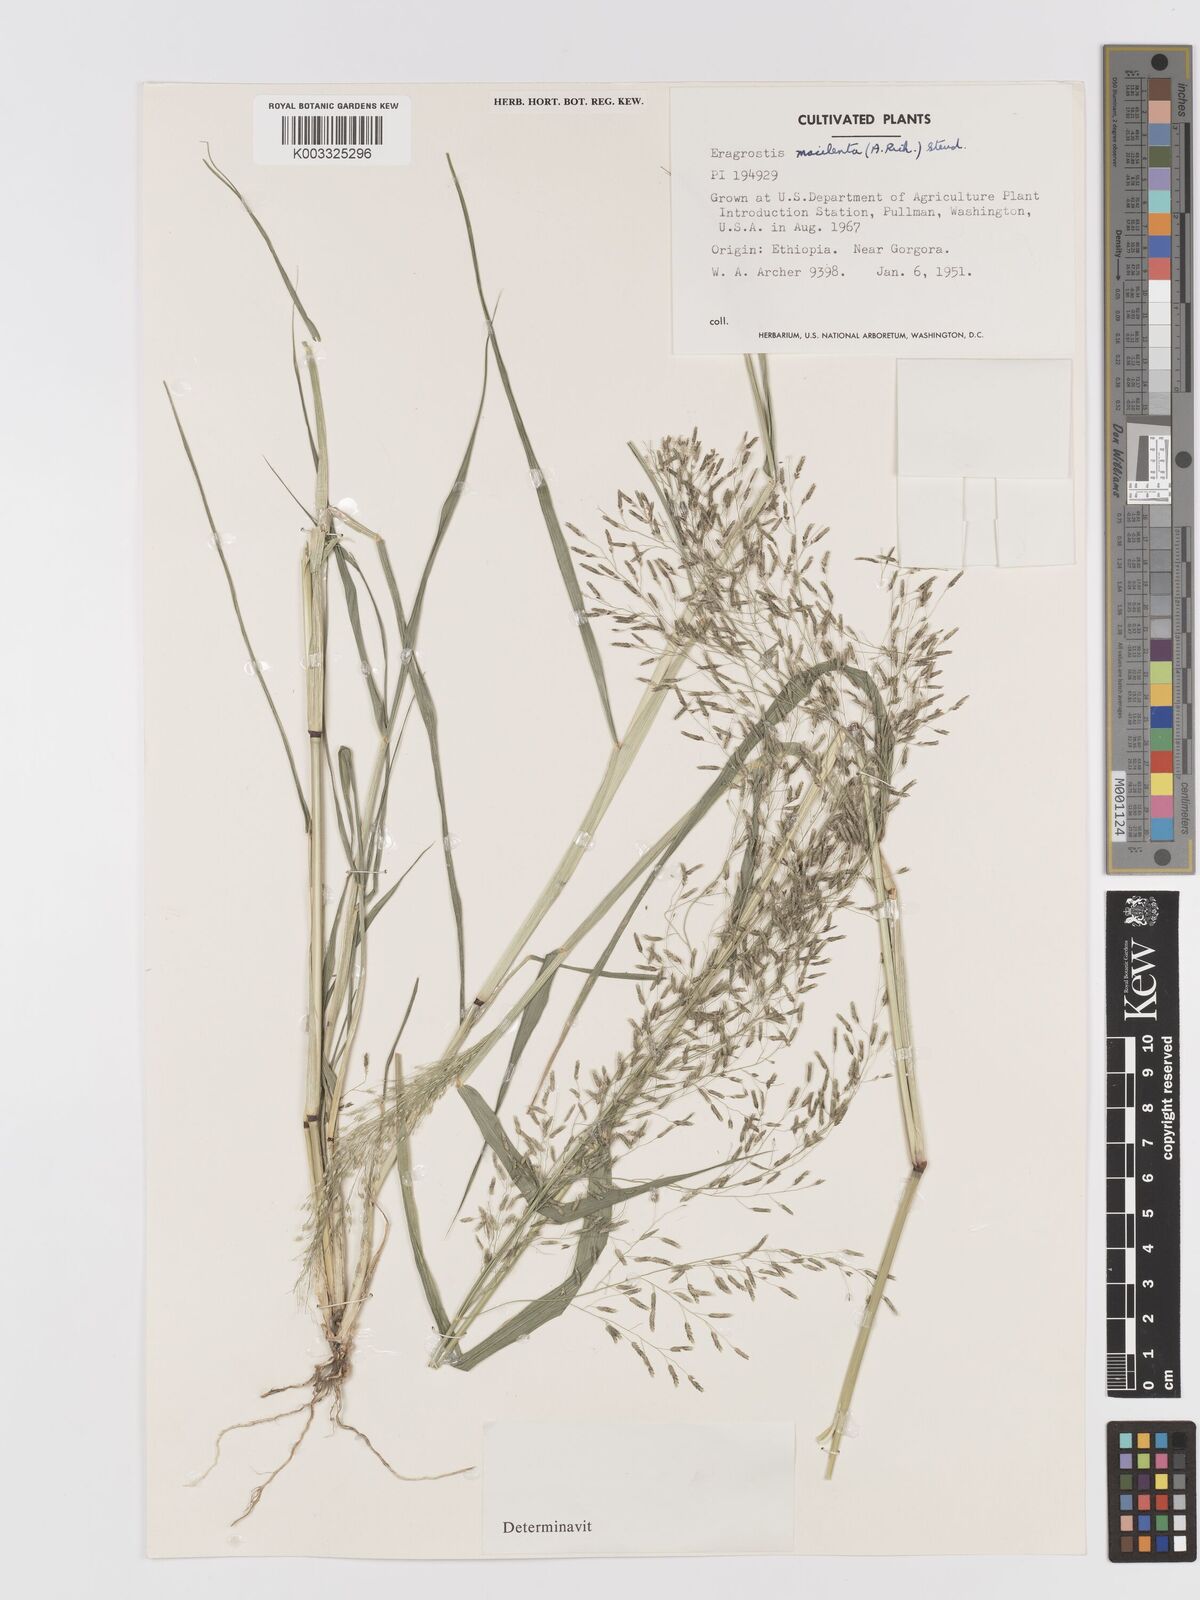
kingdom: Plantae
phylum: Tracheophyta
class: Liliopsida
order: Poales
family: Poaceae
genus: Eragrostis
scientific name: Eragrostis macilenta
